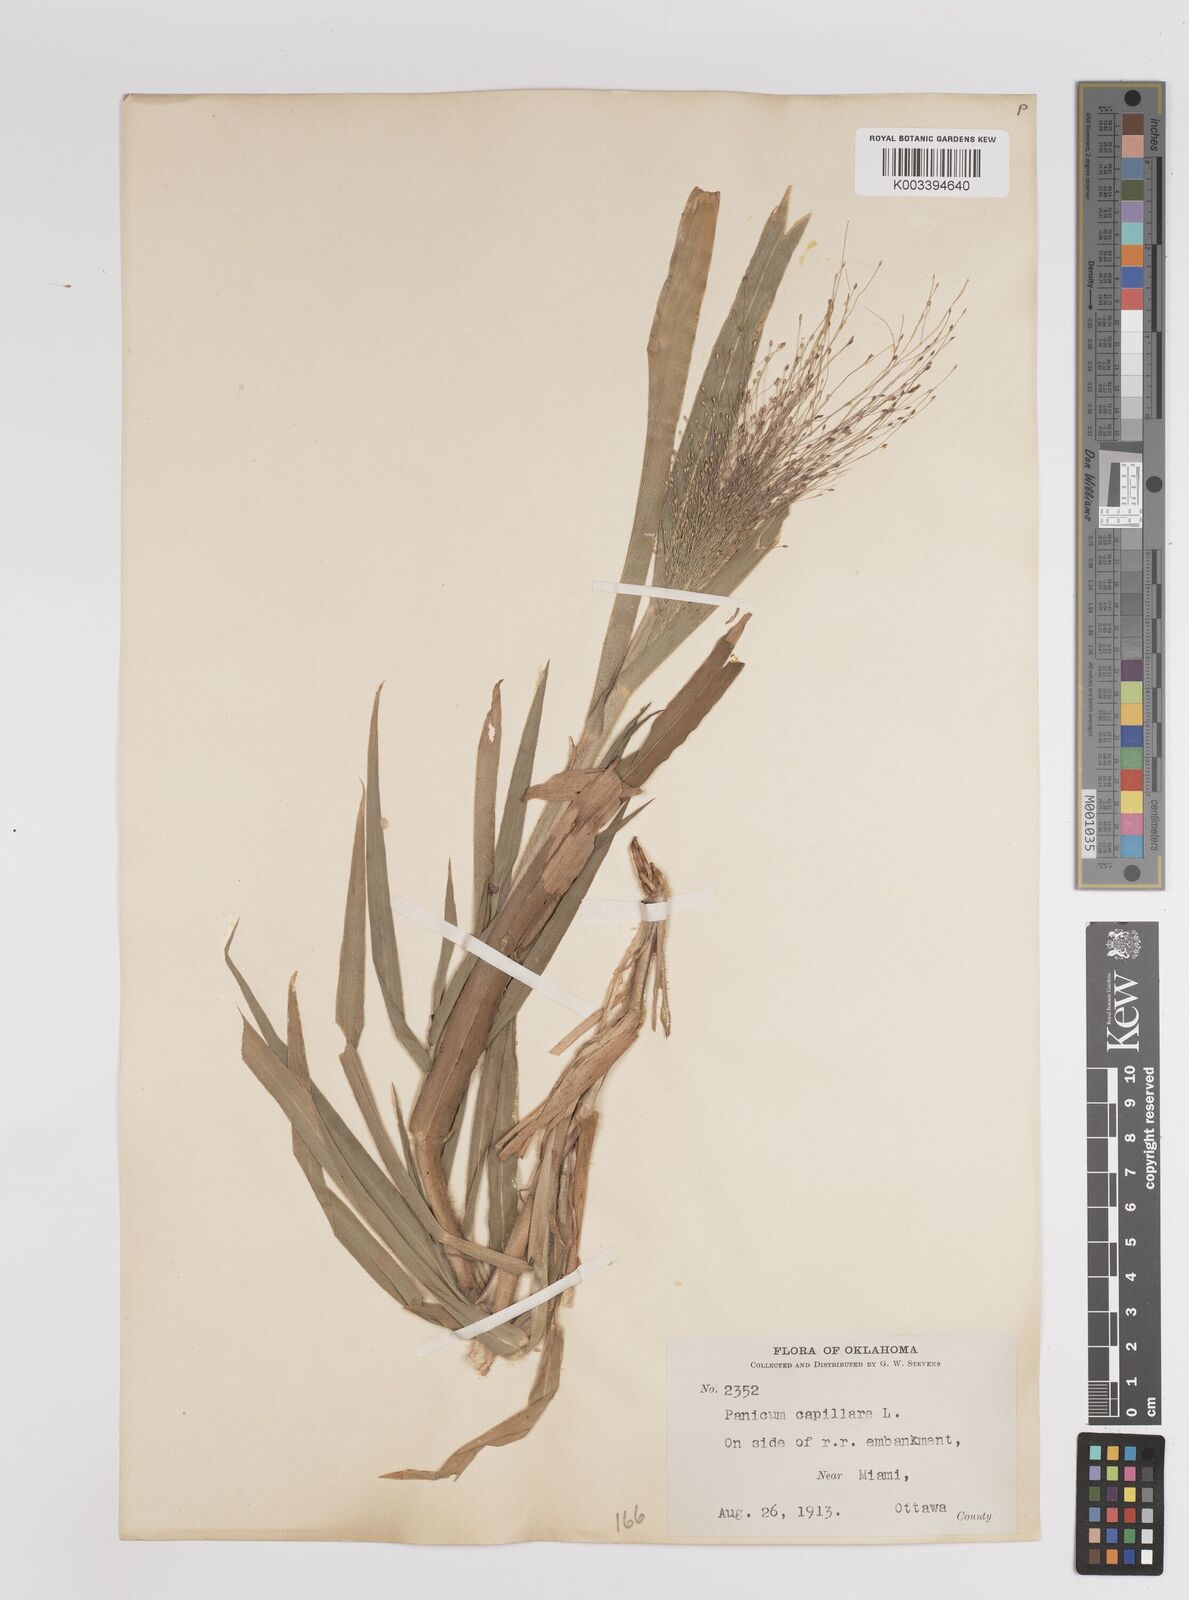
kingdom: Plantae
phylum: Tracheophyta
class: Liliopsida
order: Poales
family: Poaceae
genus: Panicum
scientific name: Panicum capillare
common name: Witch-grass
